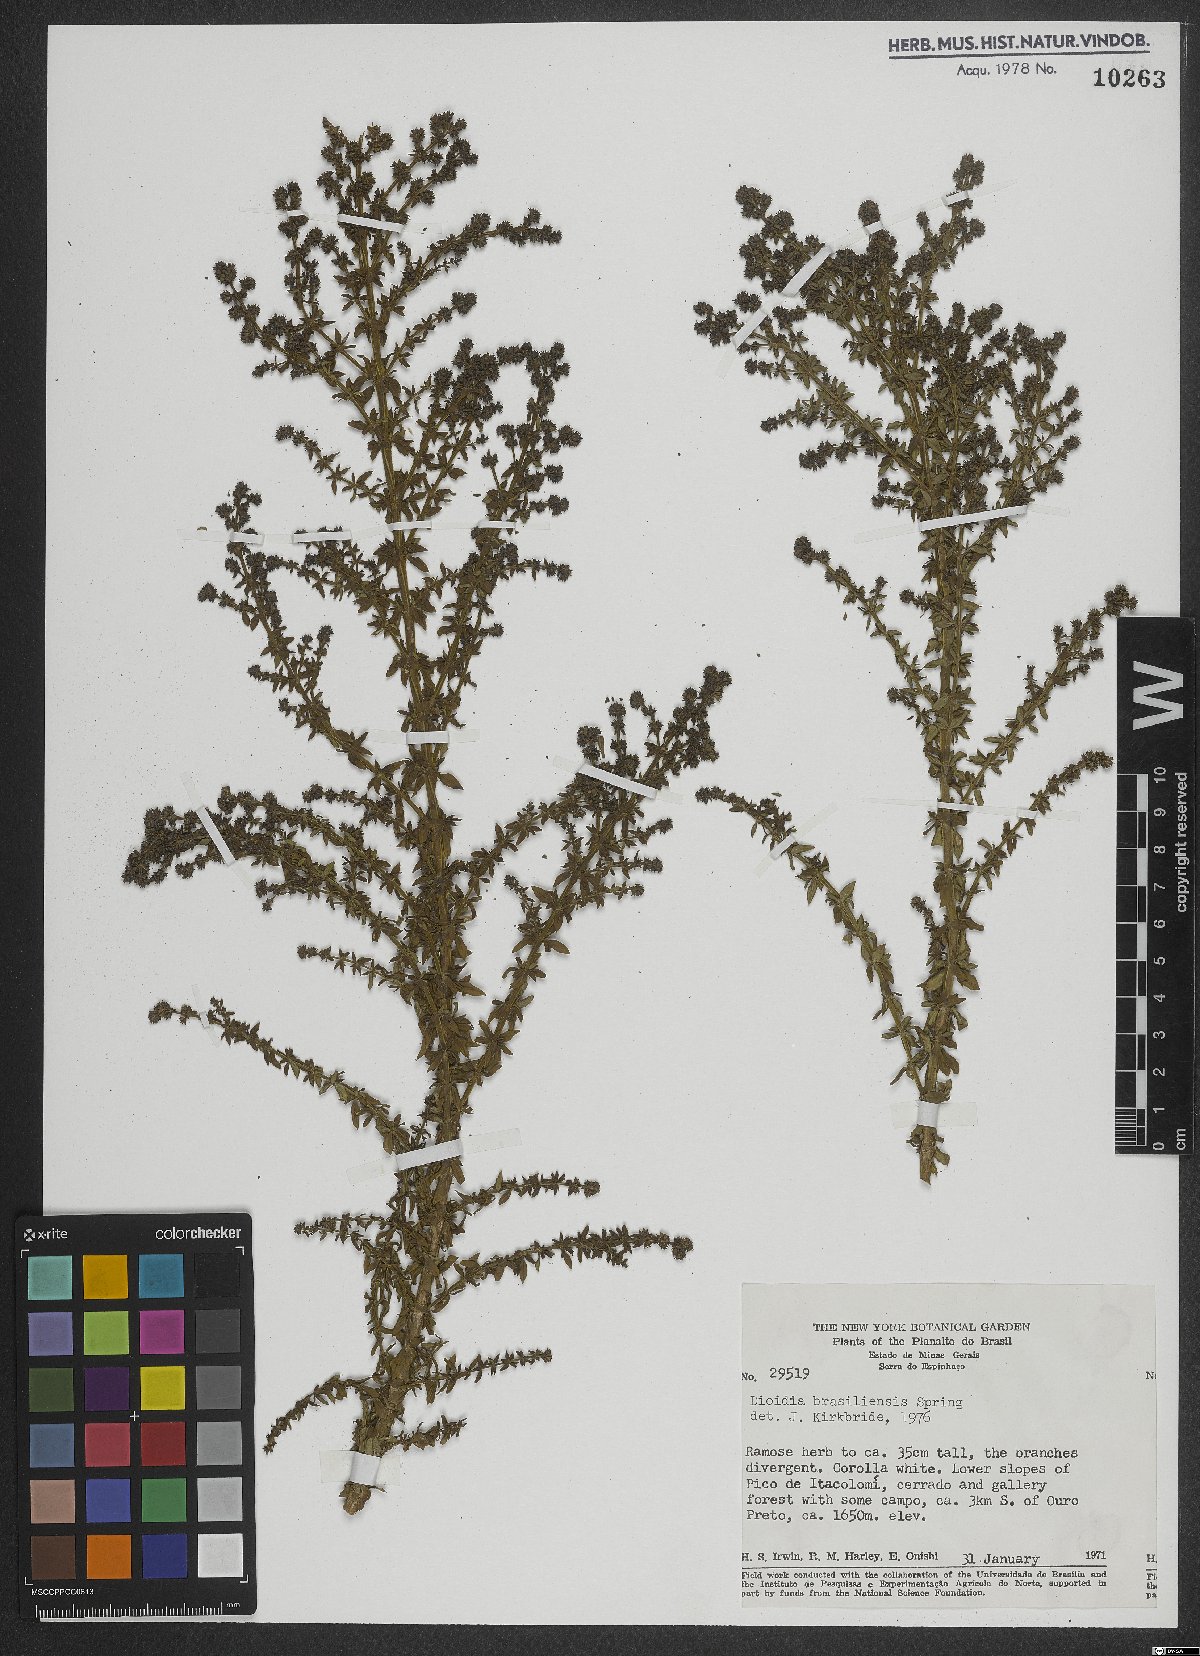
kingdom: Plantae
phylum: Tracheophyta
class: Magnoliopsida
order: Gentianales
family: Rubiaceae
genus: Galianthe
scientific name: Galianthe brasiliensis
